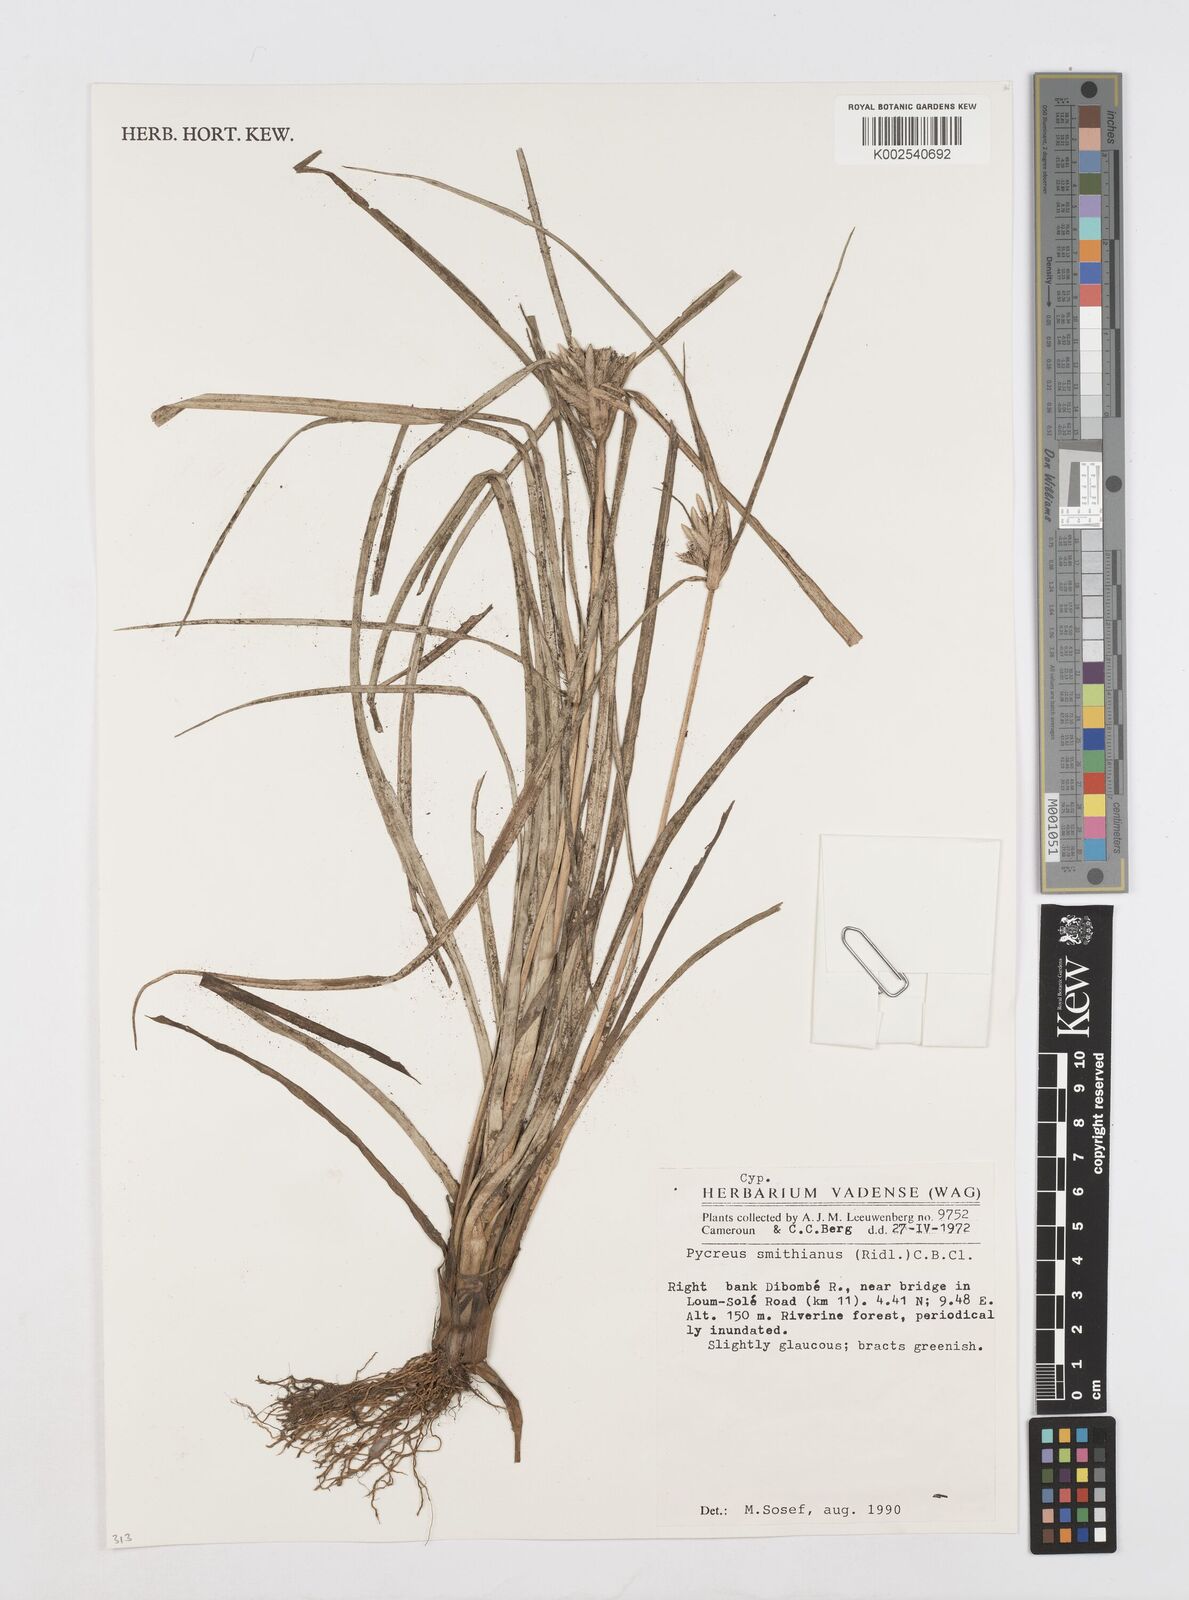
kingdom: Plantae
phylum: Tracheophyta
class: Liliopsida
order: Poales
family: Cyperaceae
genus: Cyperus
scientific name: Cyperus smithianus
